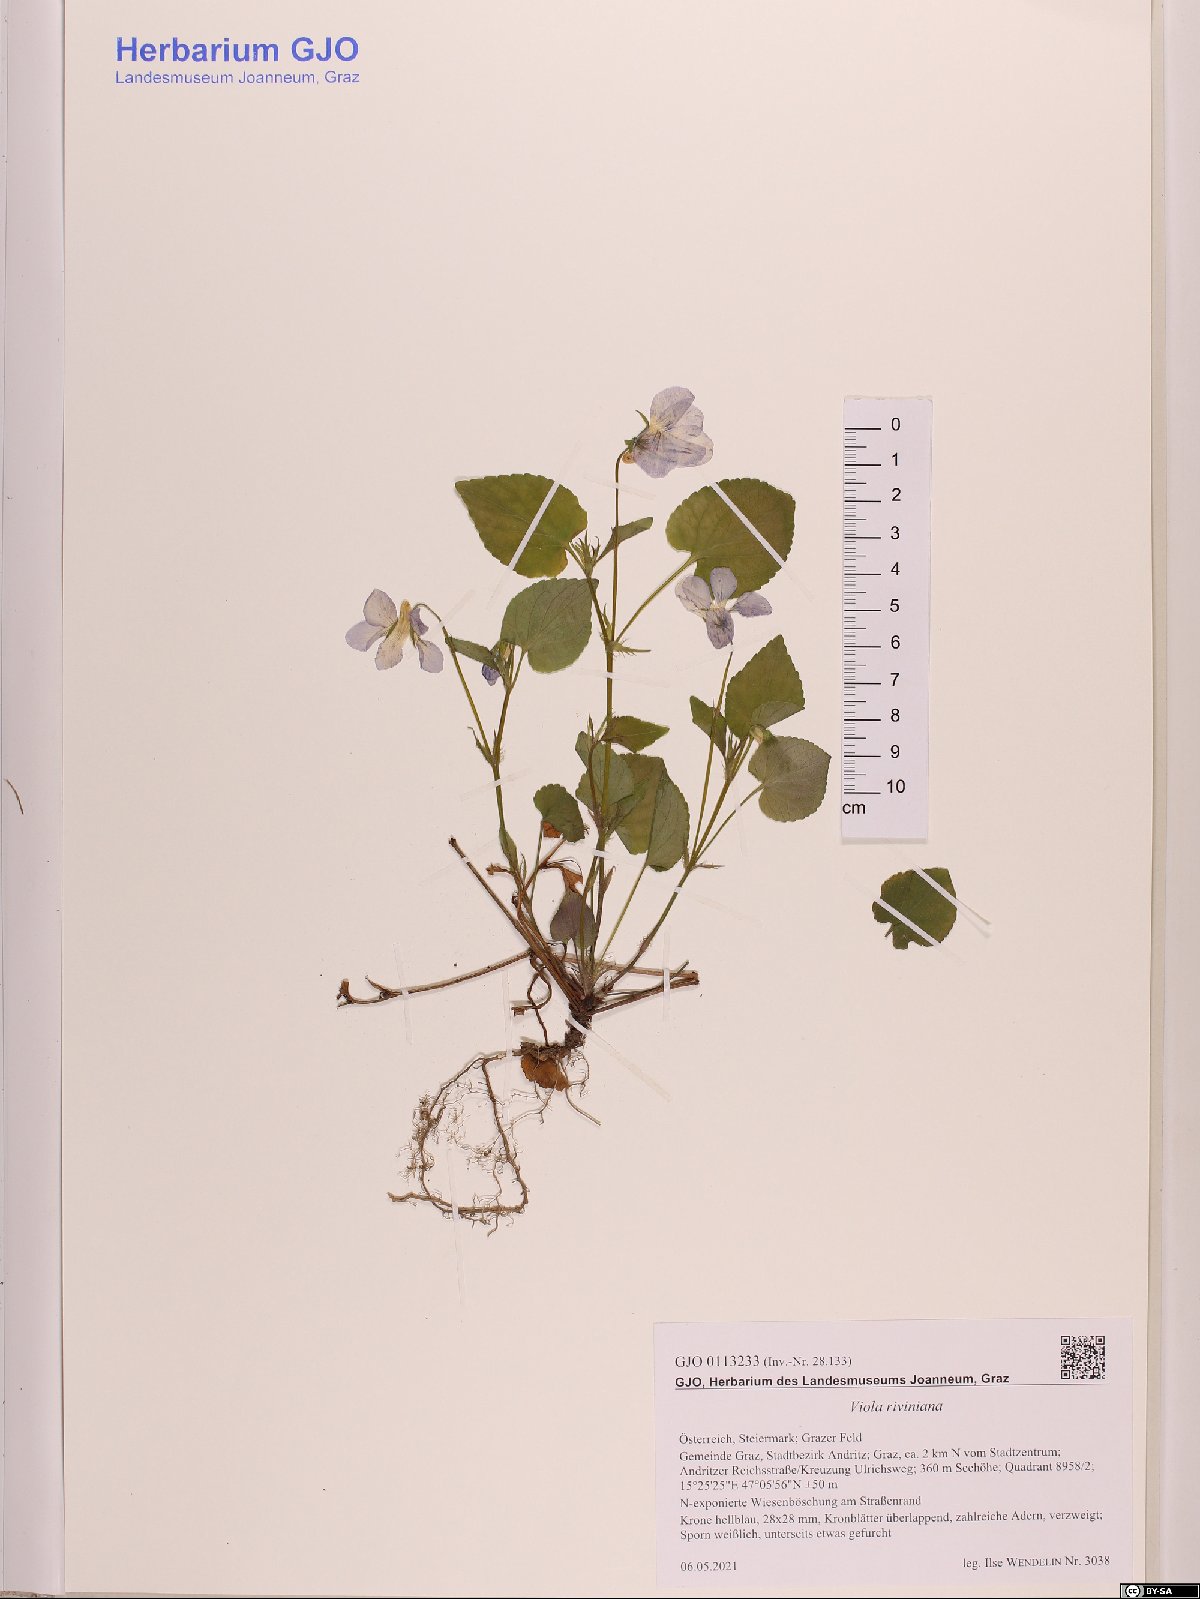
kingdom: Plantae
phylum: Tracheophyta
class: Magnoliopsida
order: Malpighiales
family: Violaceae
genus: Viola
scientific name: Viola riviniana
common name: Common dog-violet
